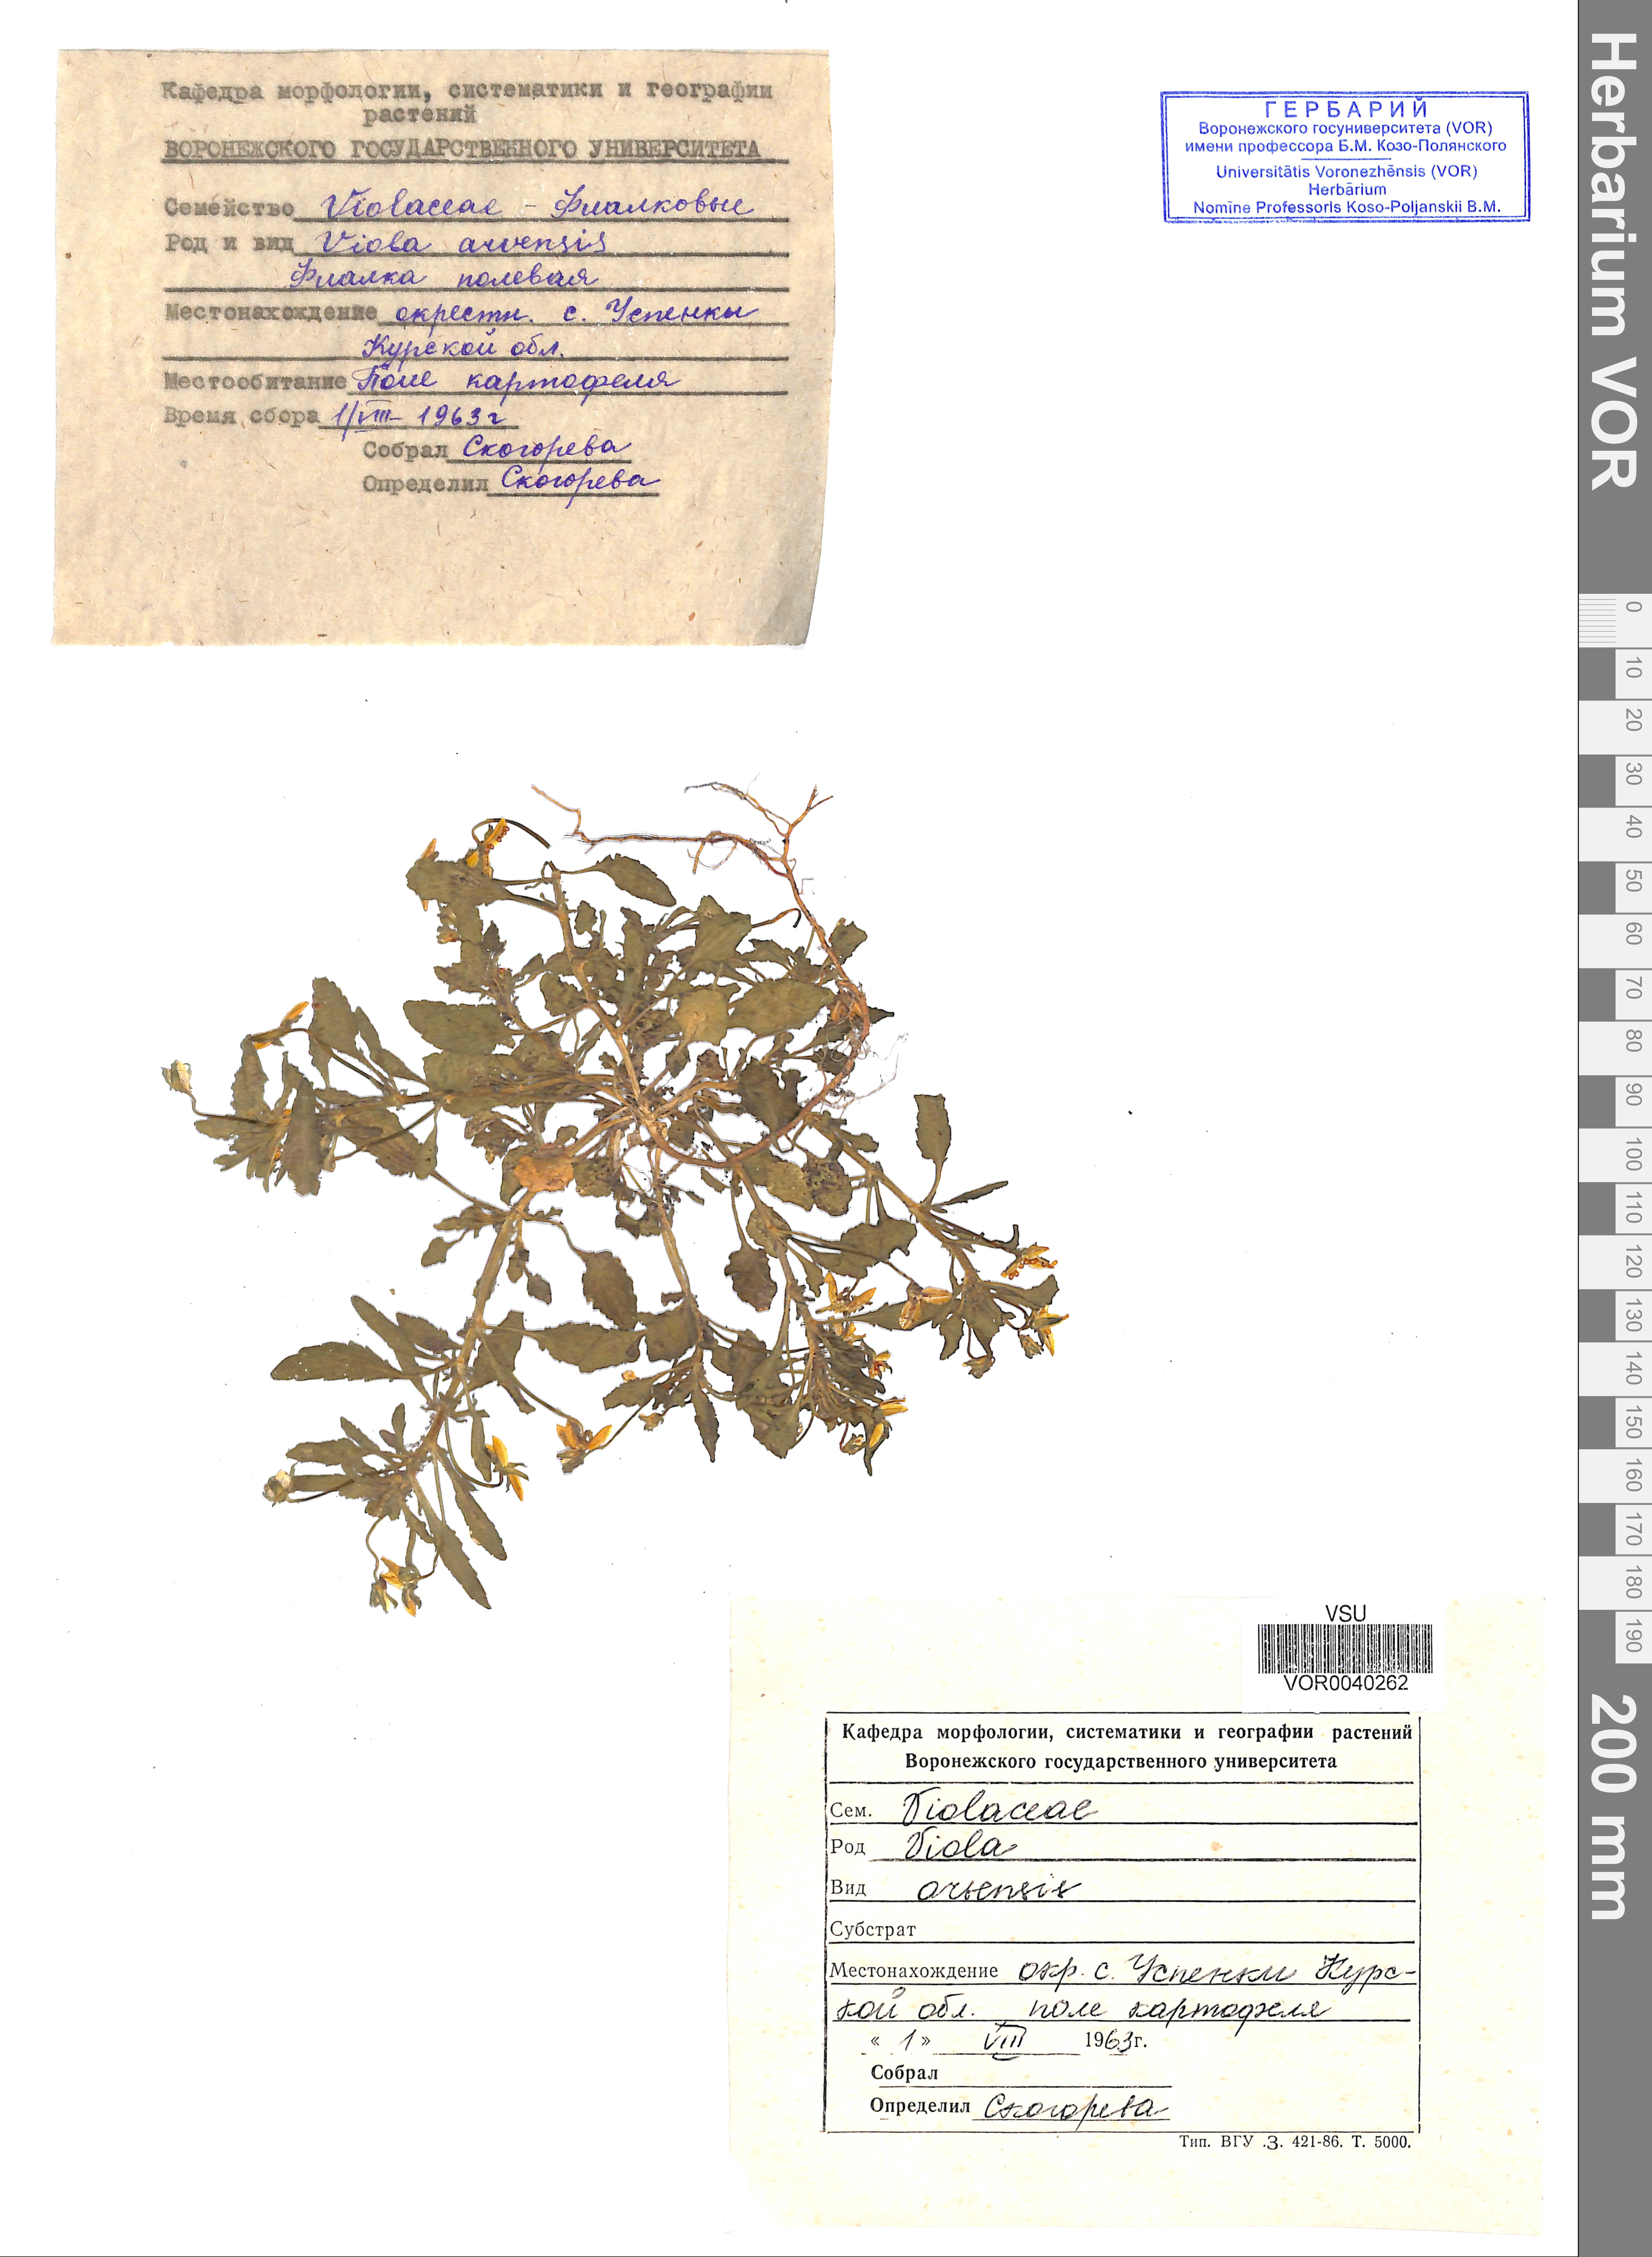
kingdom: Plantae
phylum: Tracheophyta
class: Magnoliopsida
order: Malpighiales
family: Violaceae
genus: Viola
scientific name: Viola arvensis
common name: Field pansy
